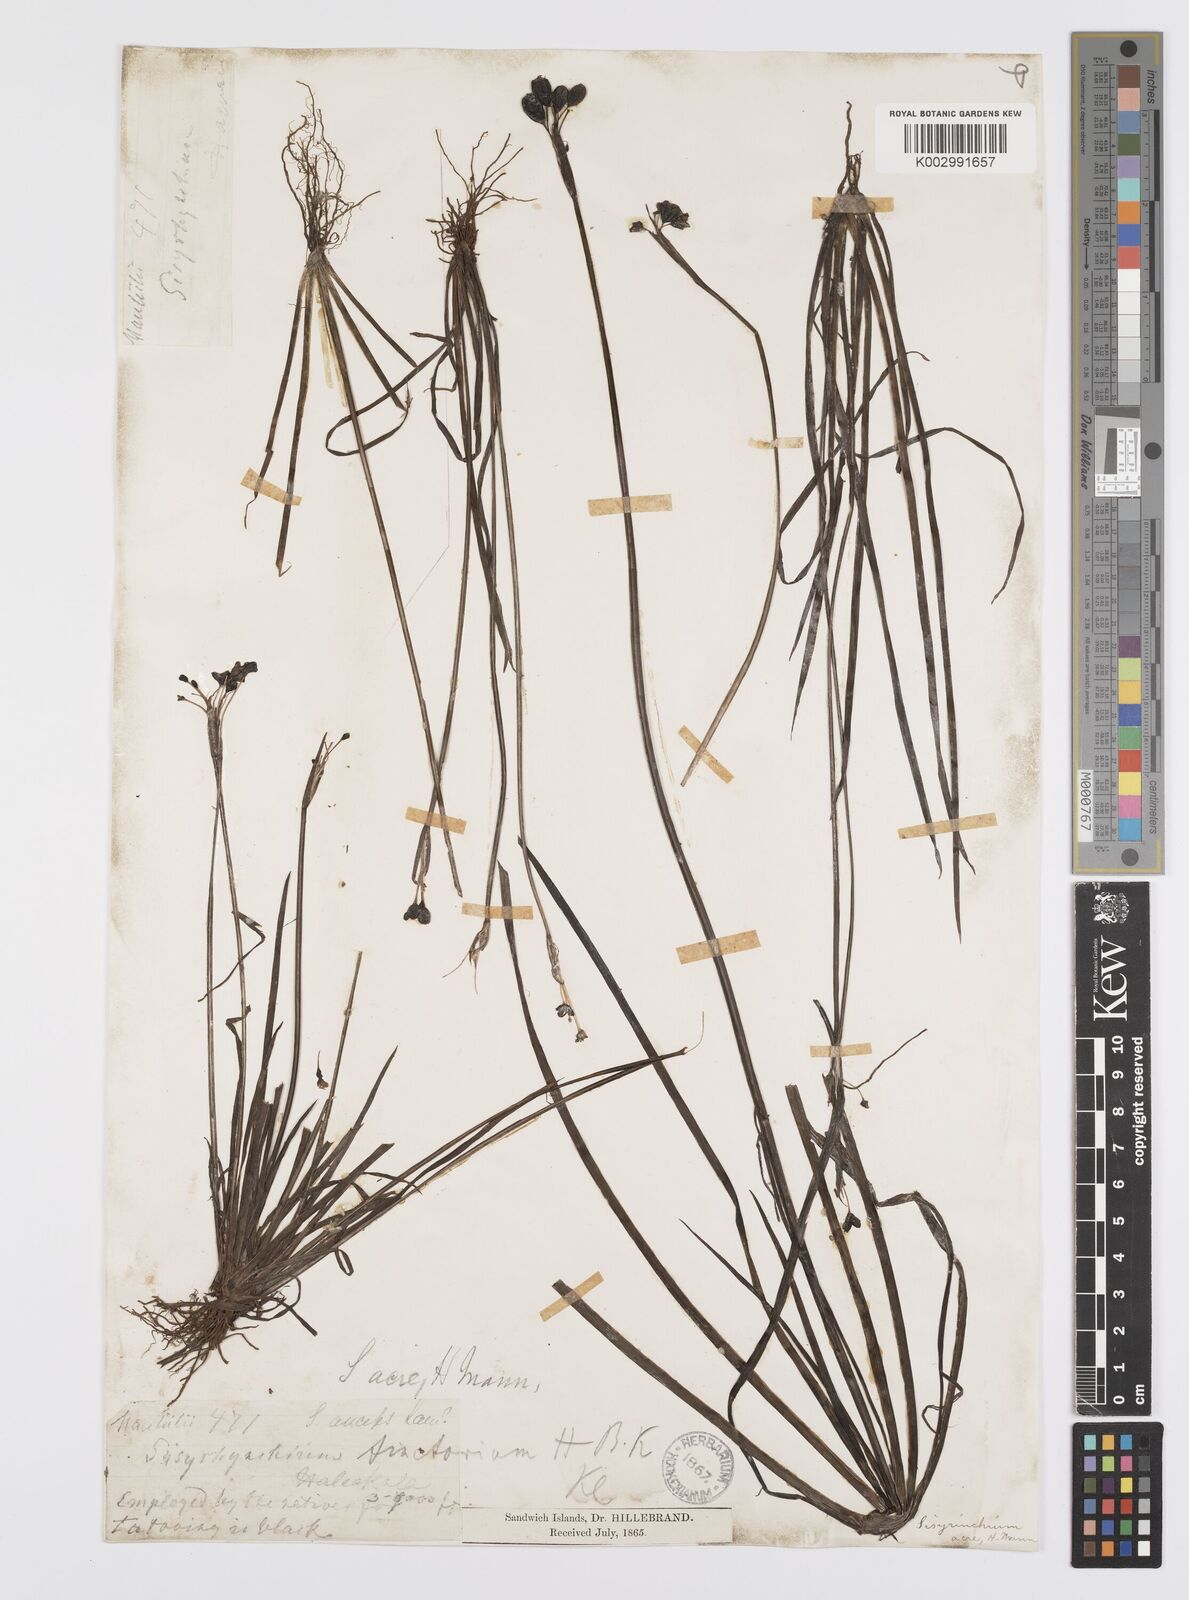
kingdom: Plantae
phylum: Tracheophyta
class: Liliopsida
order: Asparagales
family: Iridaceae
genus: Sisyrinchium
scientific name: Sisyrinchium acre
